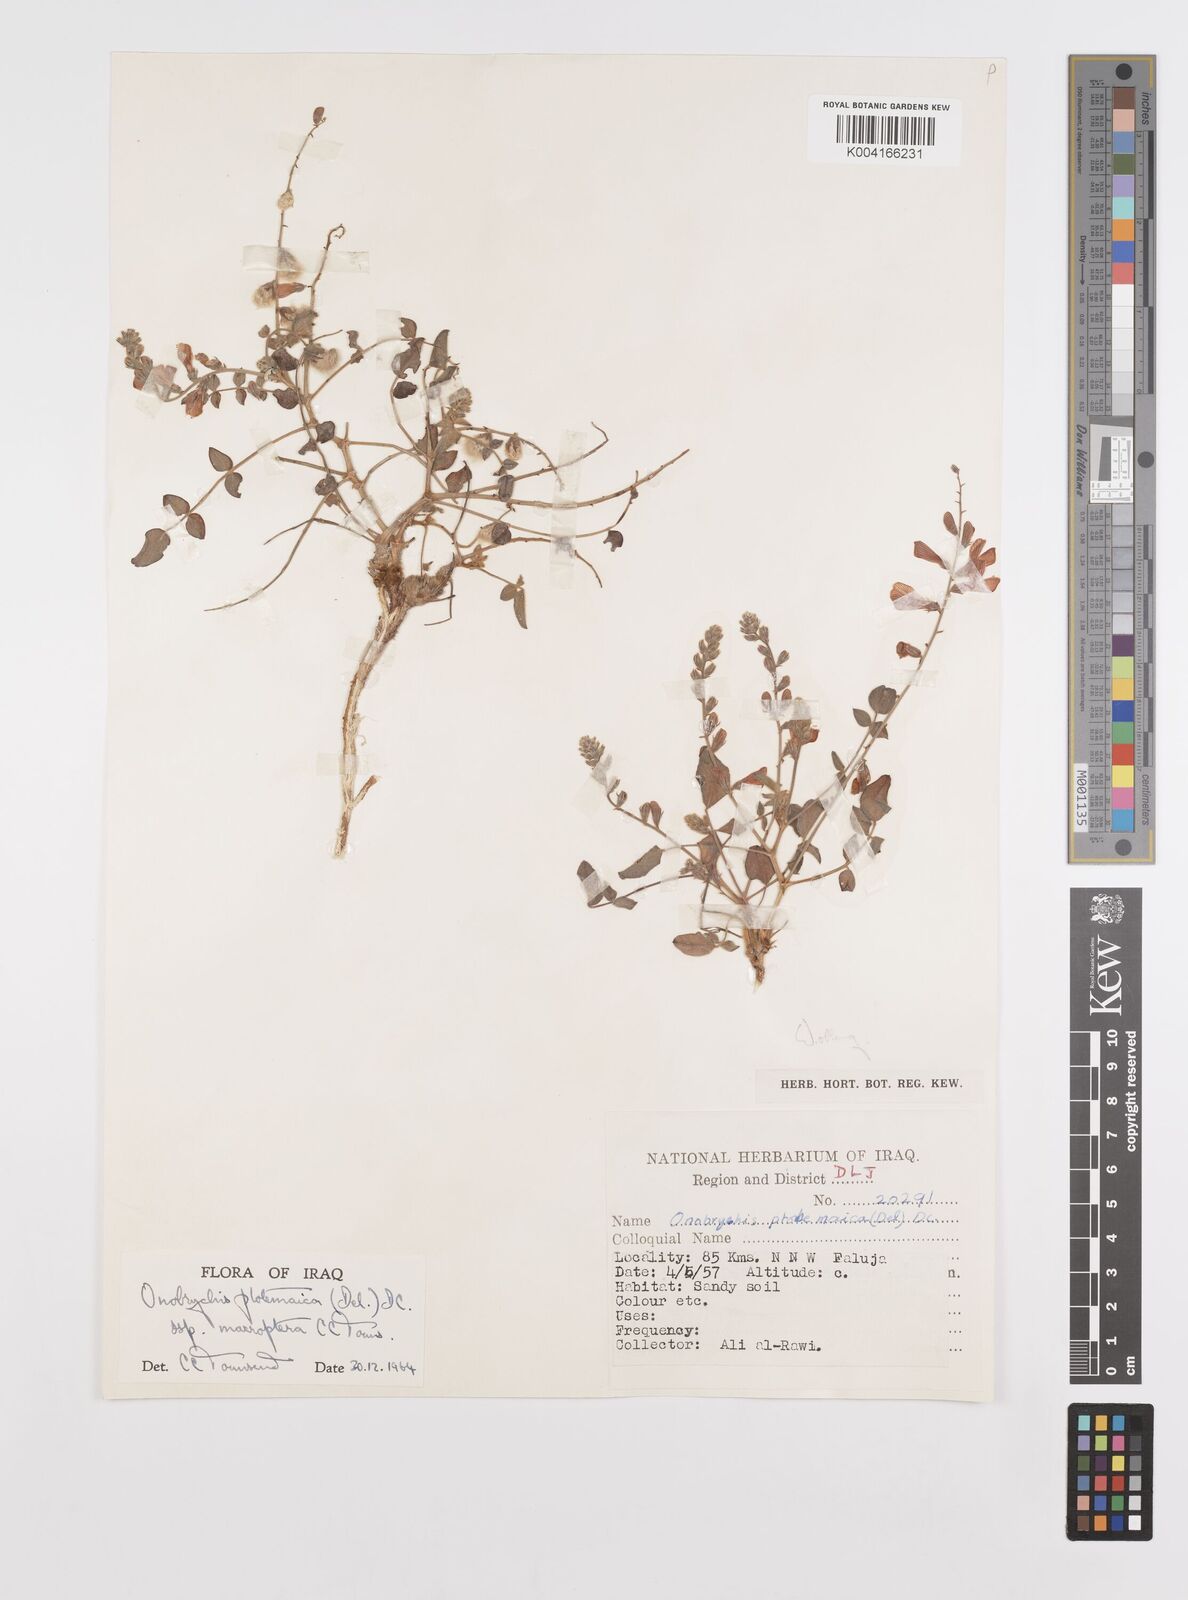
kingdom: Plantae
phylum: Tracheophyta
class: Magnoliopsida
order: Fabales
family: Fabaceae
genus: Onobrychis
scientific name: Onobrychis ptolemaica
